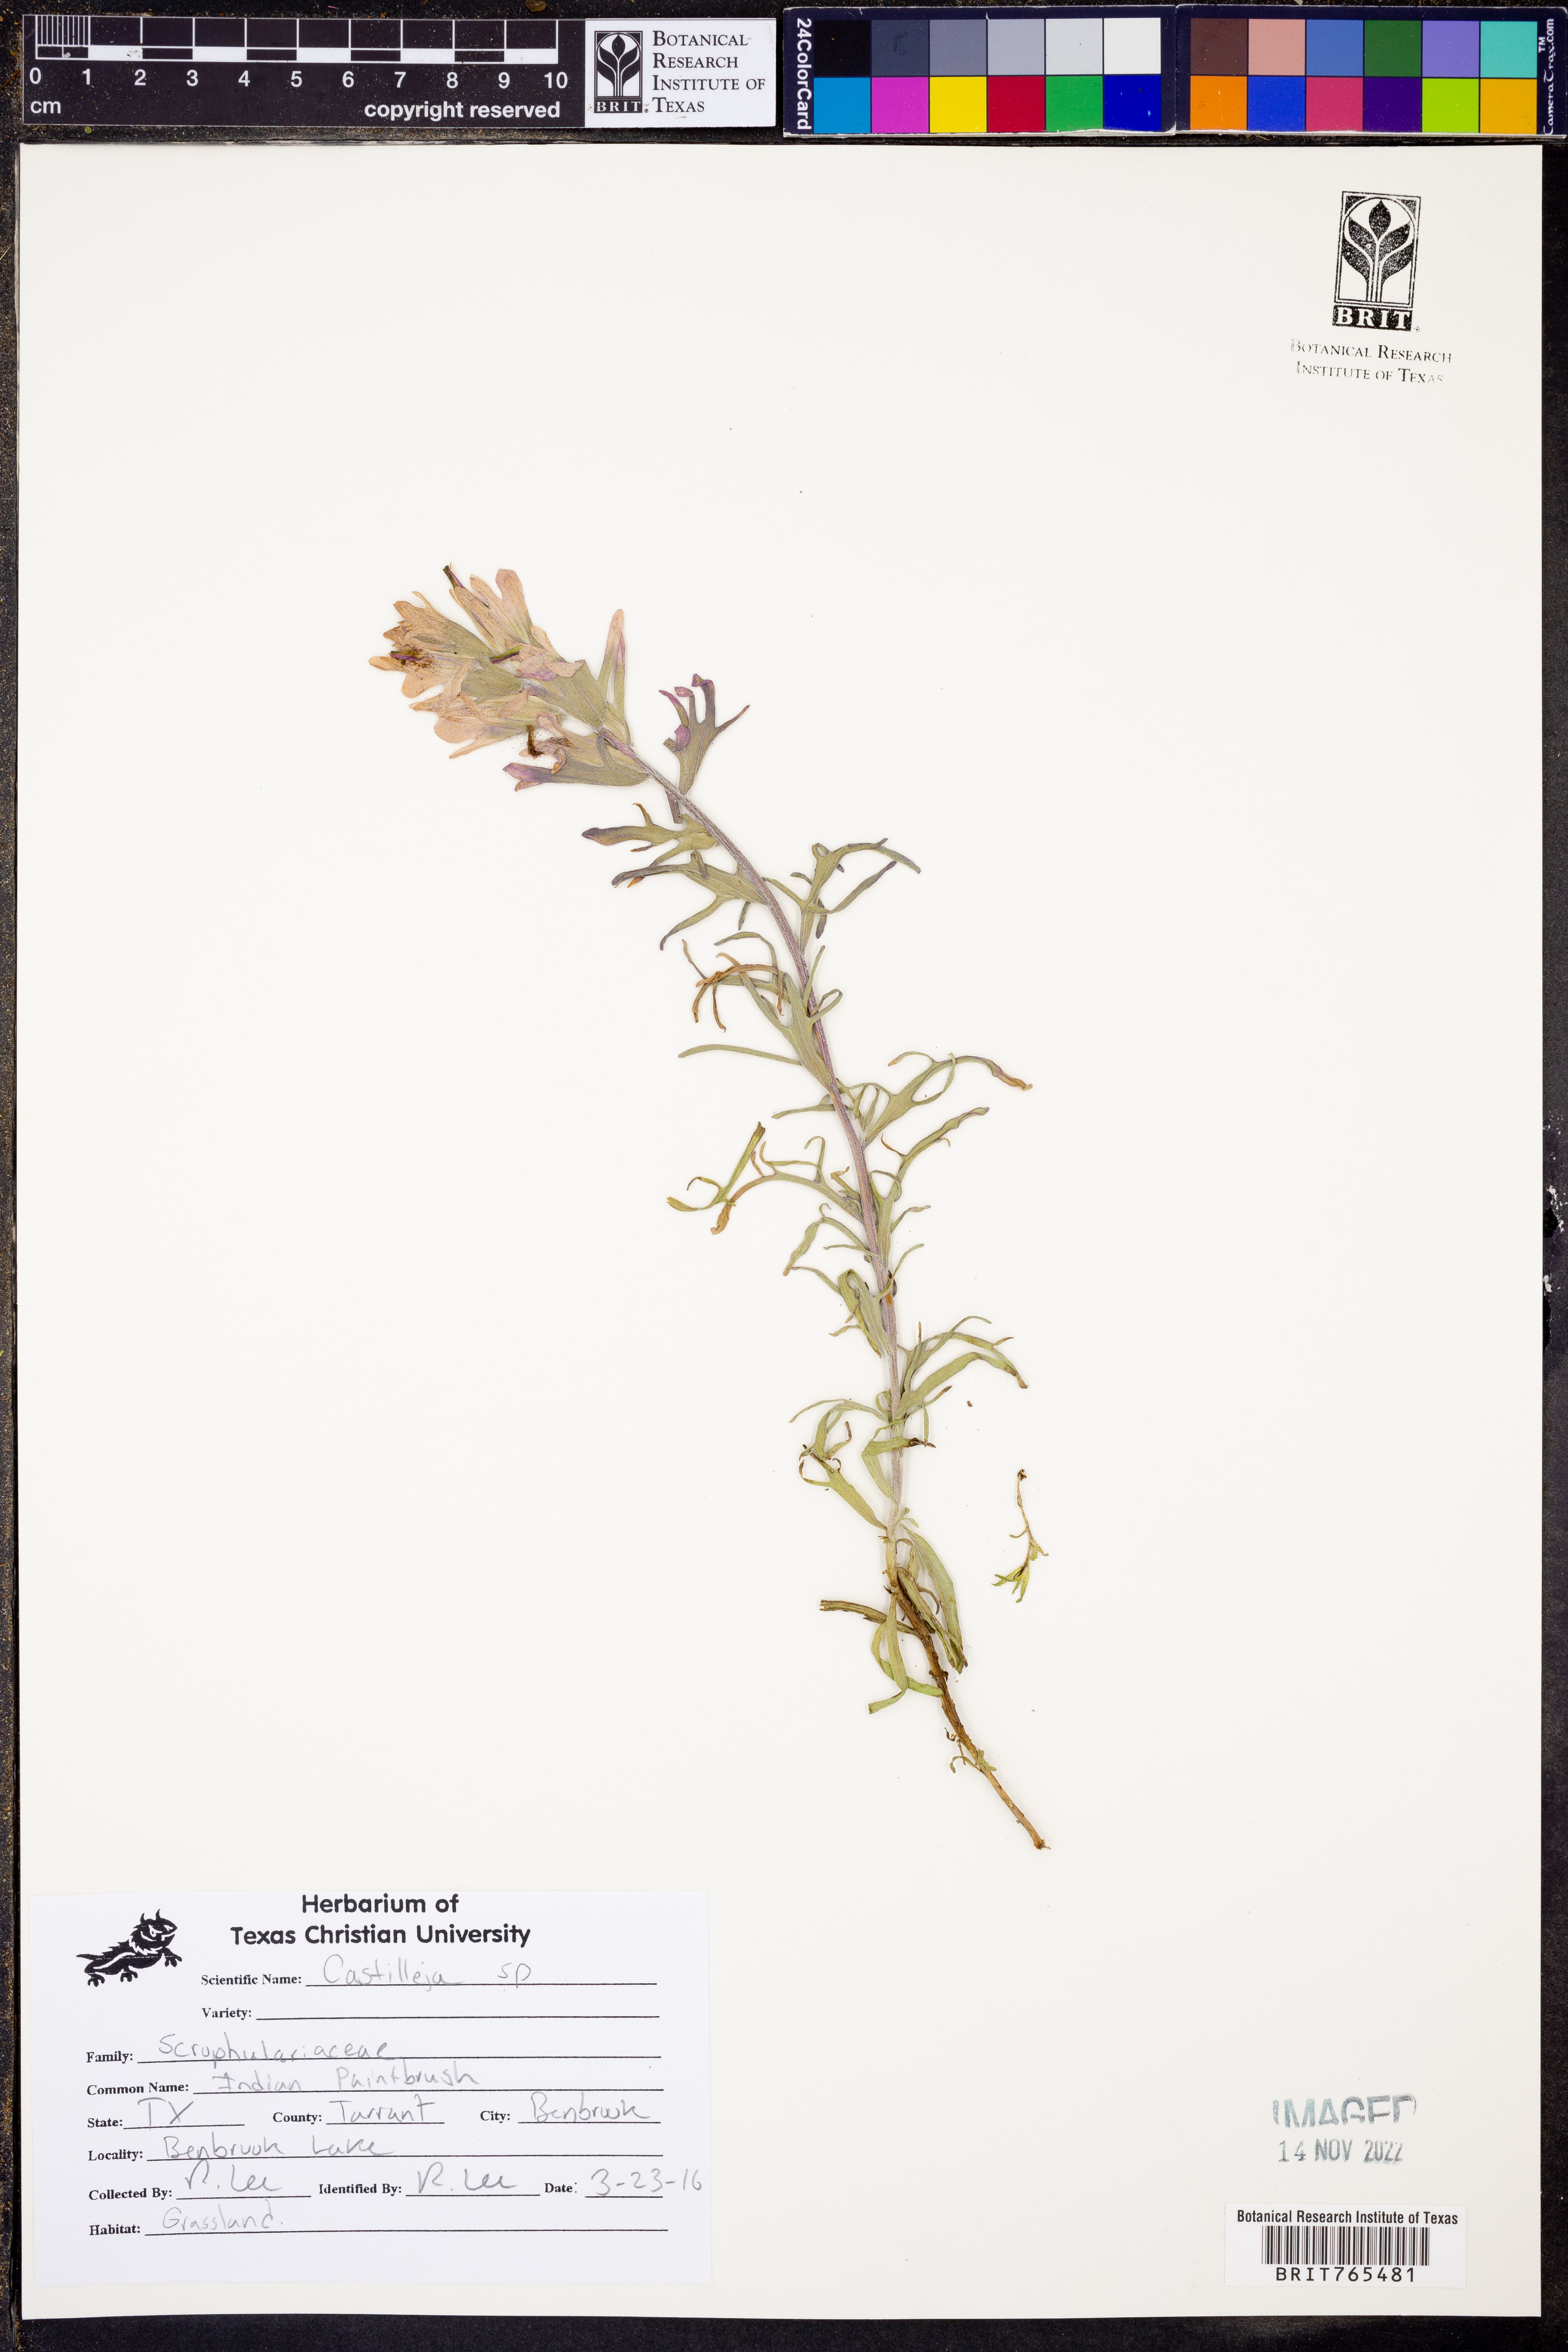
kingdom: Plantae
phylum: Tracheophyta
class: Magnoliopsida
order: Lamiales
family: Orobanchaceae
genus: Castilleja
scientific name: Castilleja
